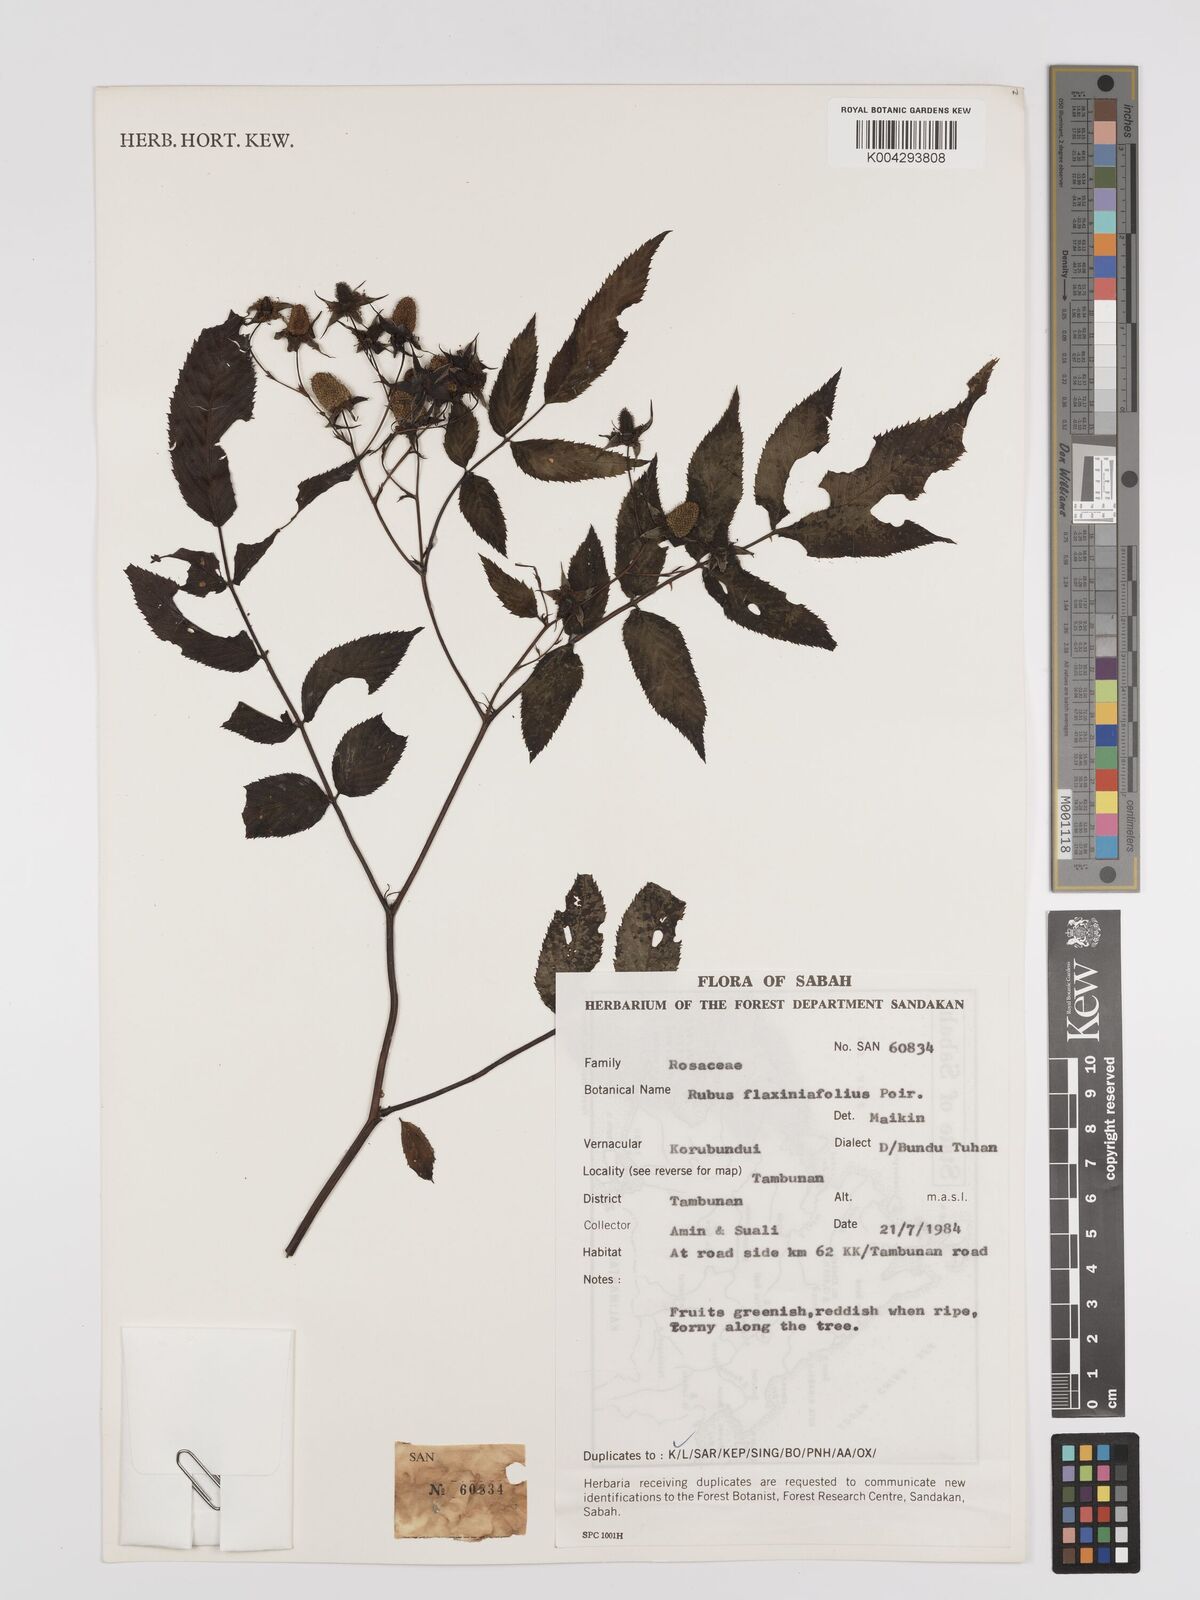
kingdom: Plantae
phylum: Tracheophyta
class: Magnoliopsida
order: Rosales
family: Rosaceae
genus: Rubus
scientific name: Rubus fraxinifolius
